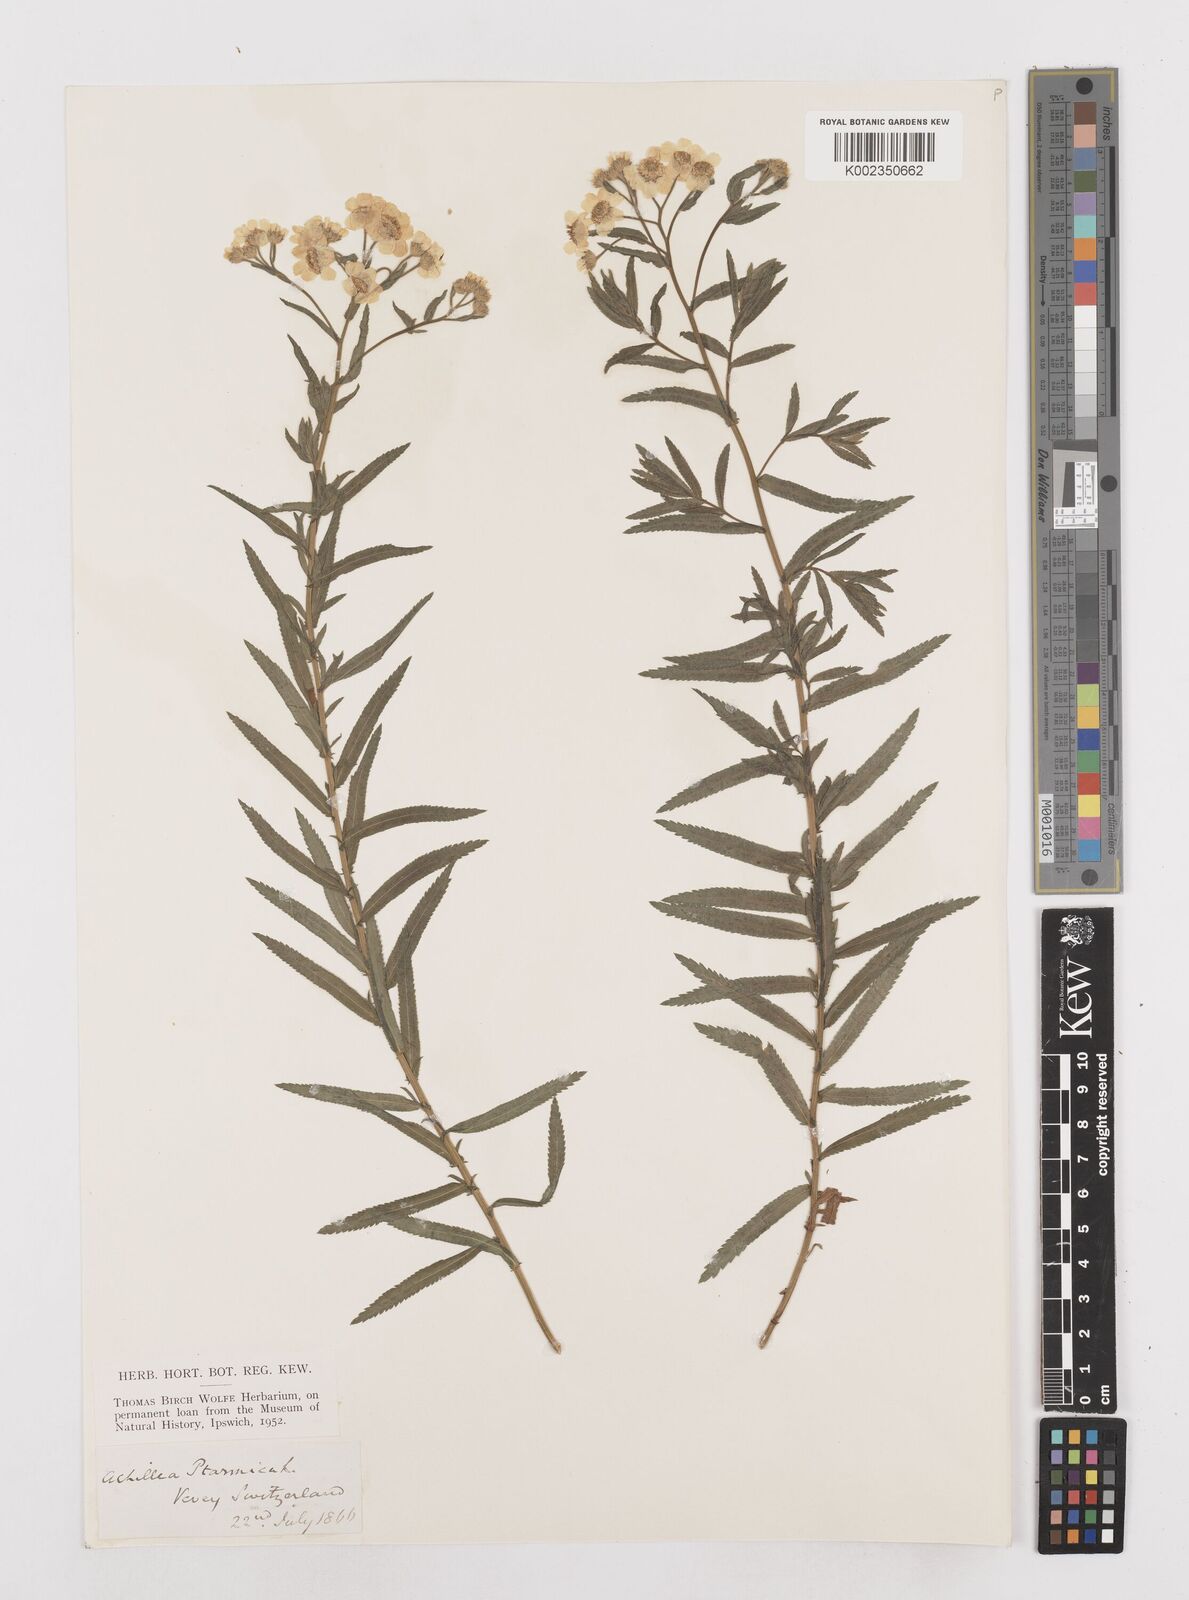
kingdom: Plantae
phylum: Tracheophyta
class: Magnoliopsida
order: Asterales
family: Asteraceae
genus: Achillea
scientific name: Achillea ptarmica
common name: Sneezeweed
